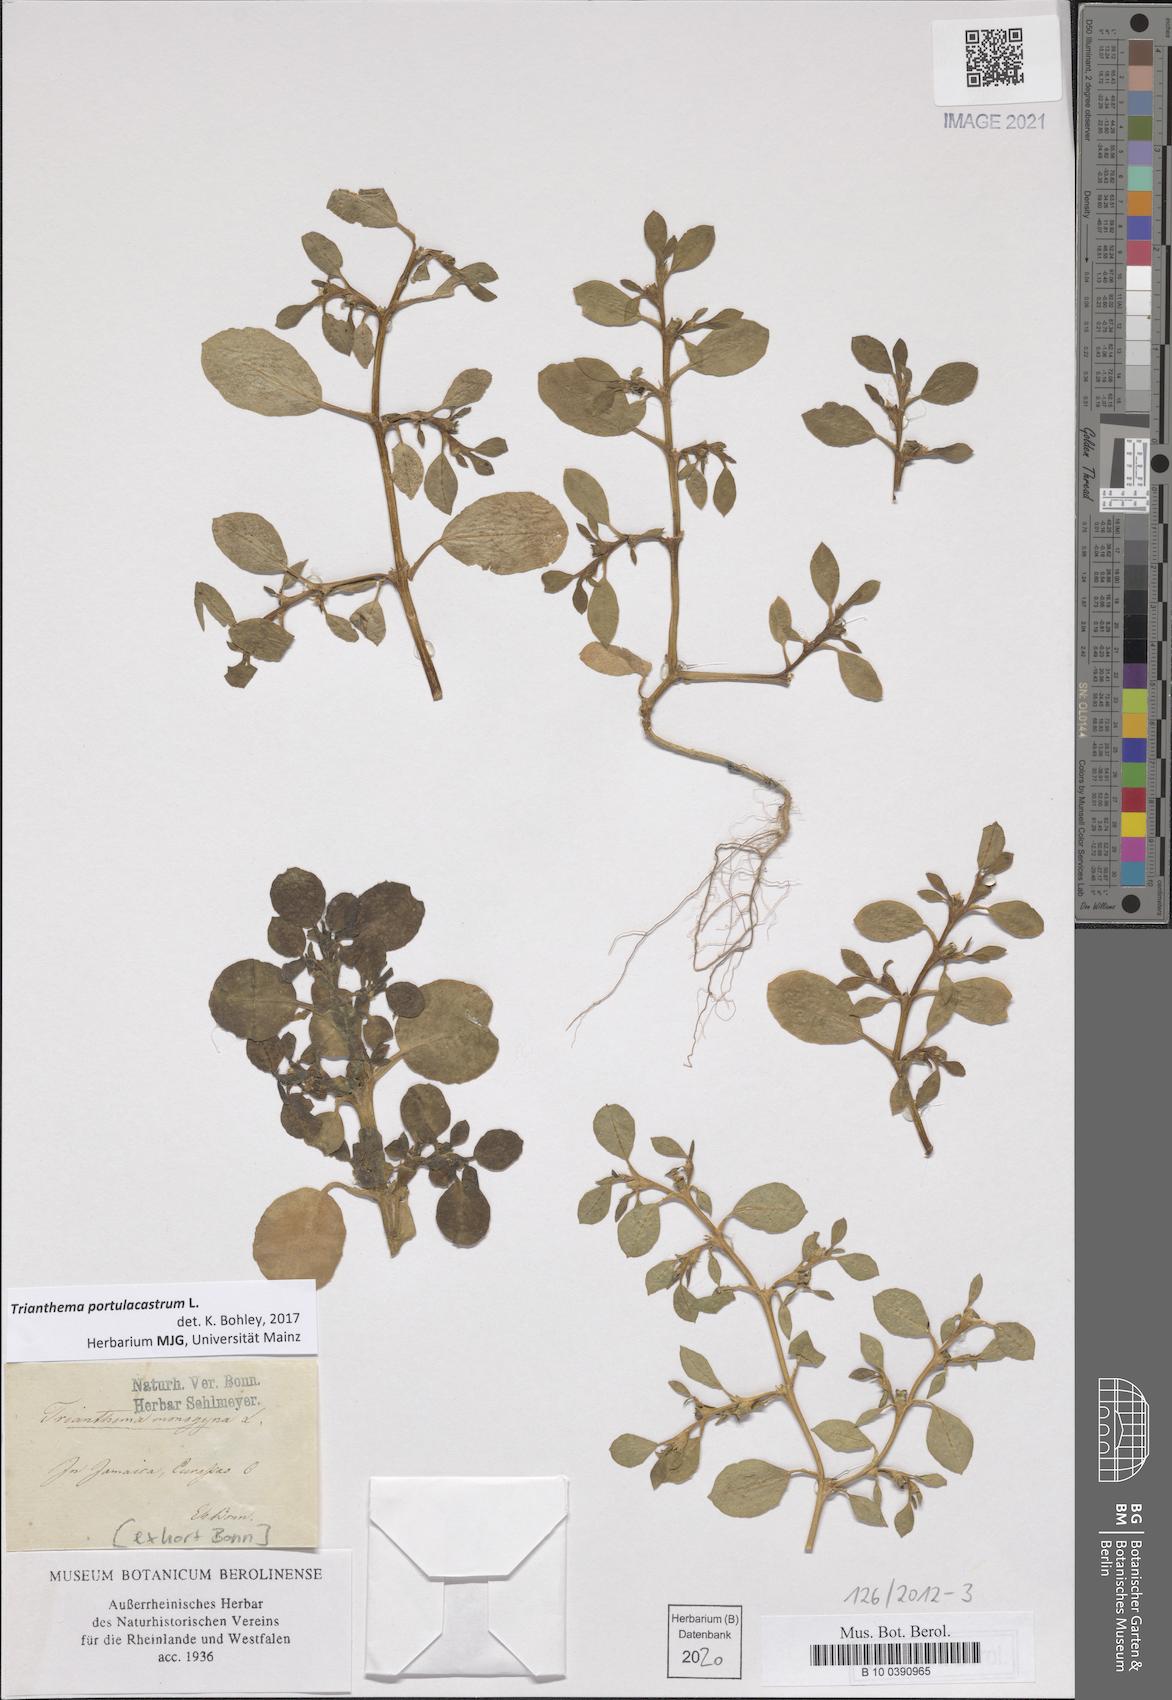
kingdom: Plantae
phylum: Tracheophyta
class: Magnoliopsida
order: Caryophyllales
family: Aizoaceae
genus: Trianthema
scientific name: Trianthema portulacastrum
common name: Desert horsepurslane
